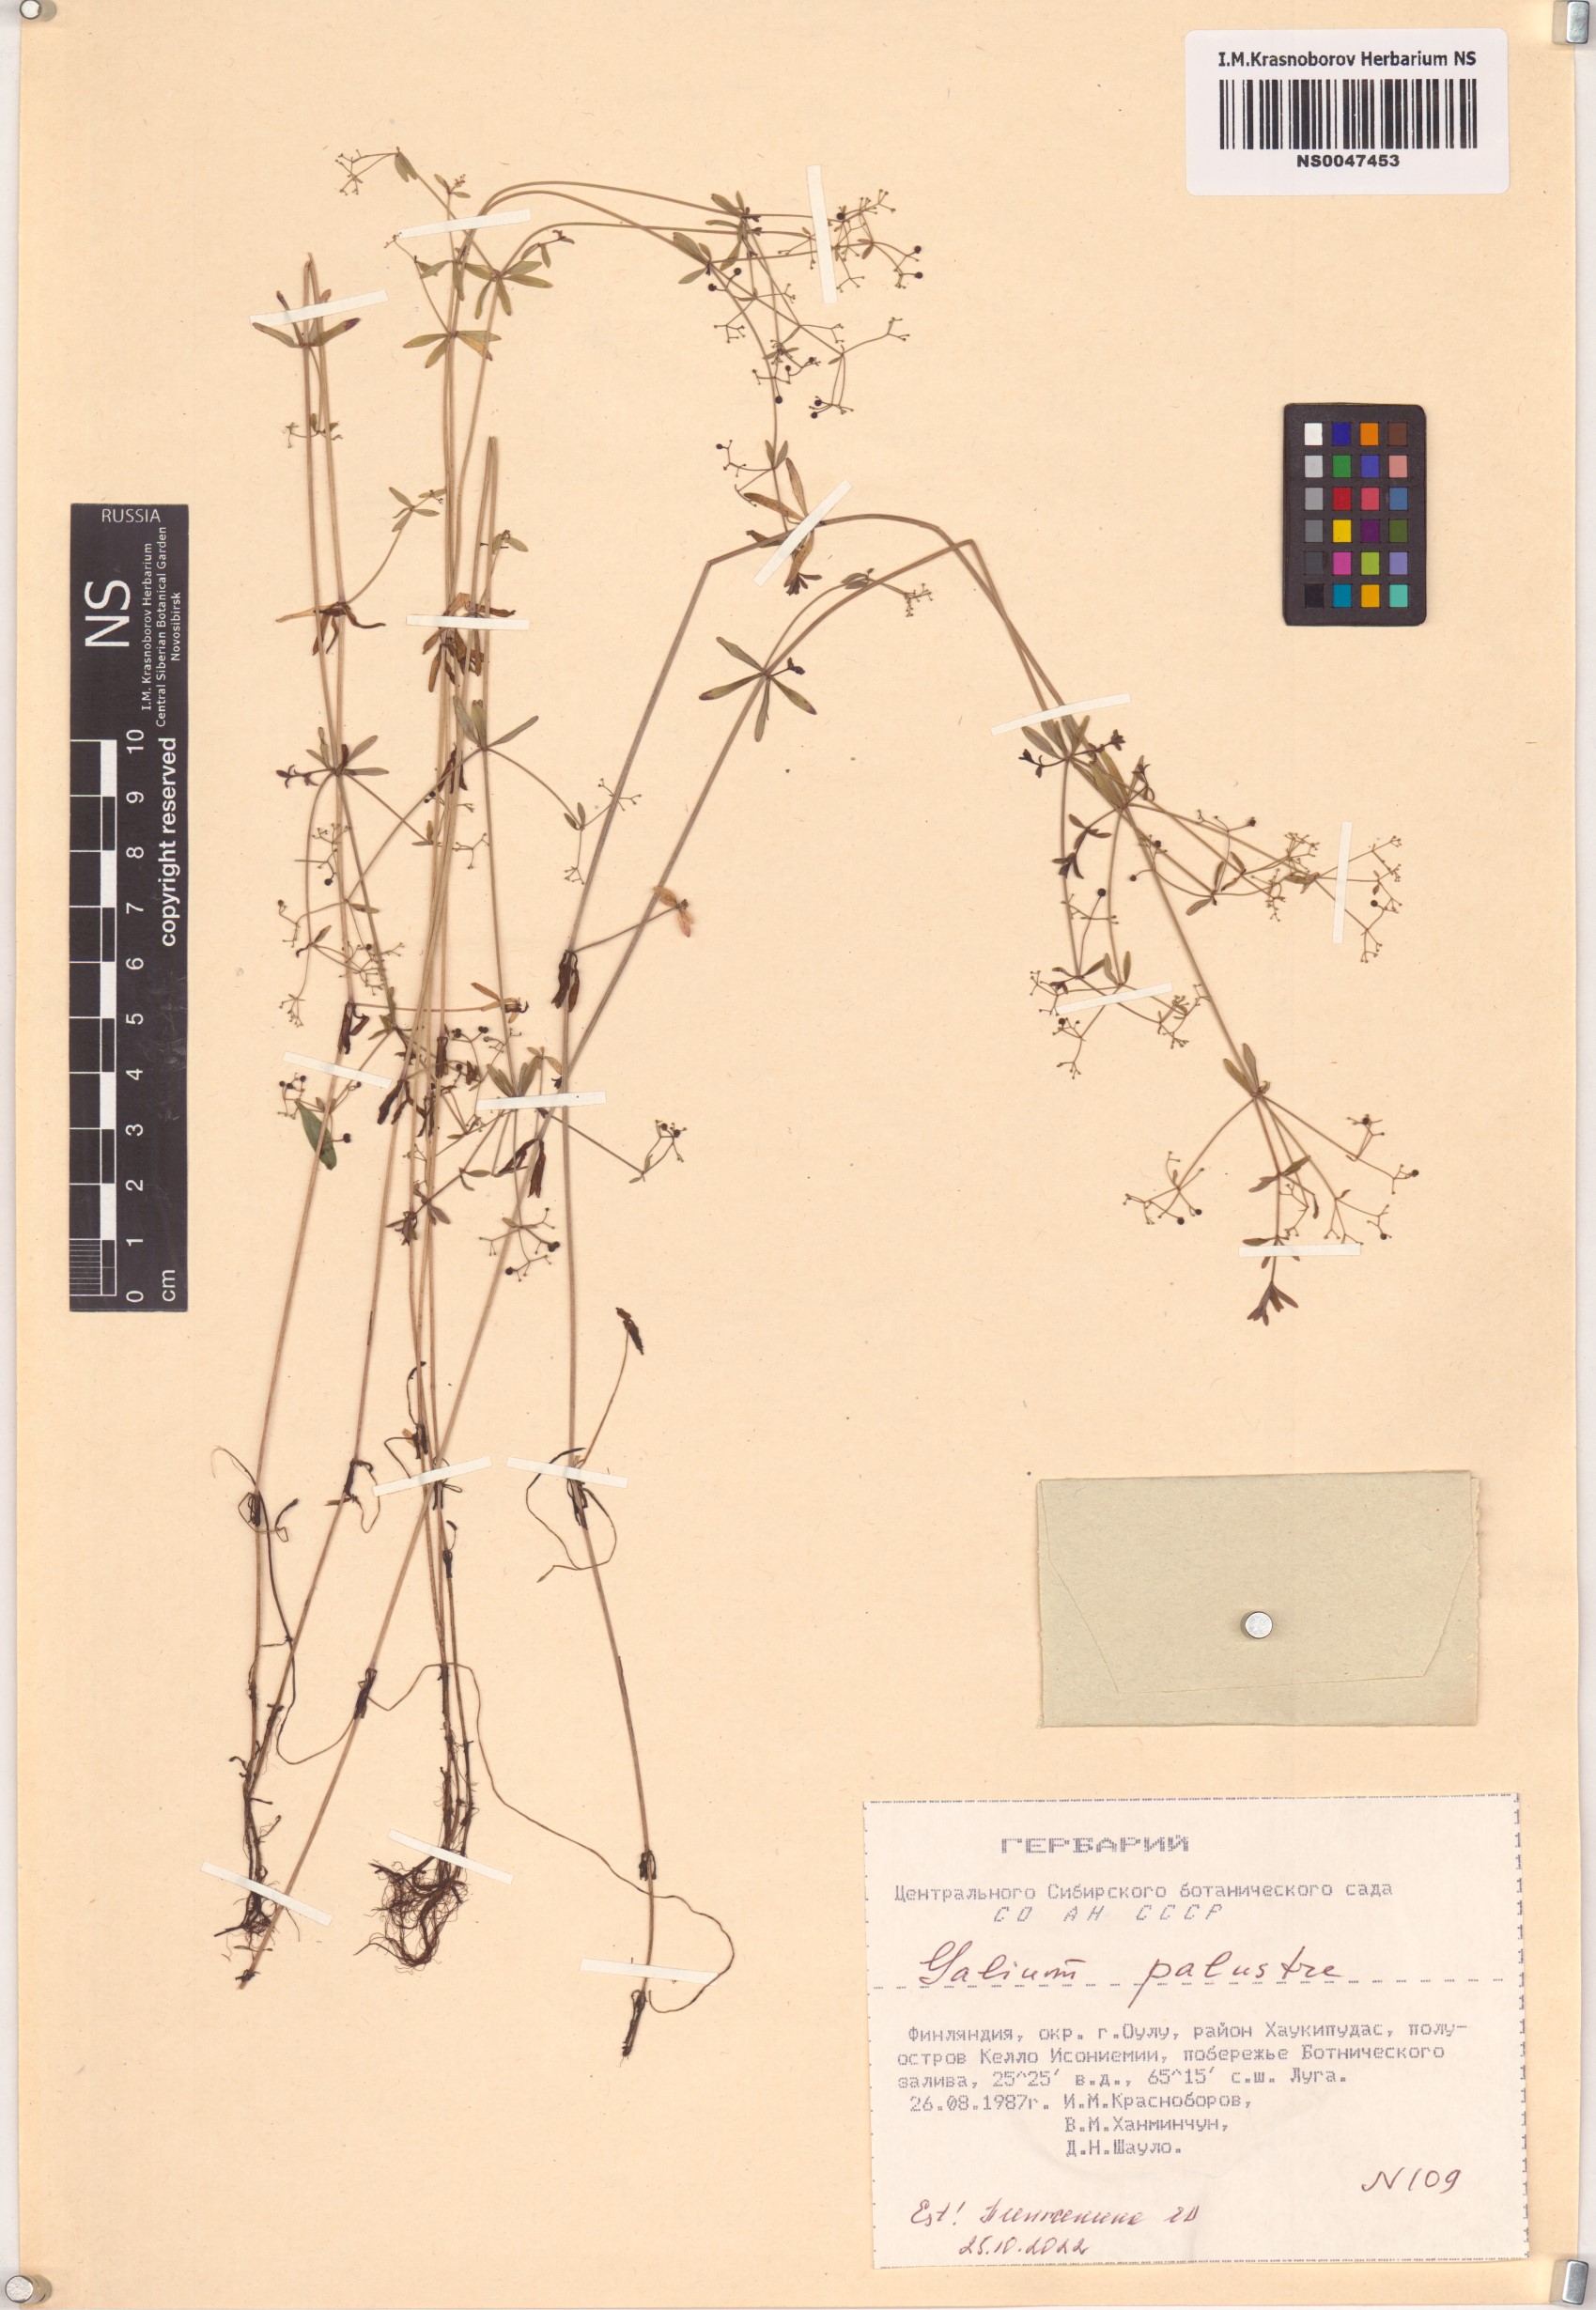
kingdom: Plantae
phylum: Tracheophyta
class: Magnoliopsida
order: Gentianales
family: Rubiaceae
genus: Galium
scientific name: Galium palustre
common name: Common marsh-bedstraw
